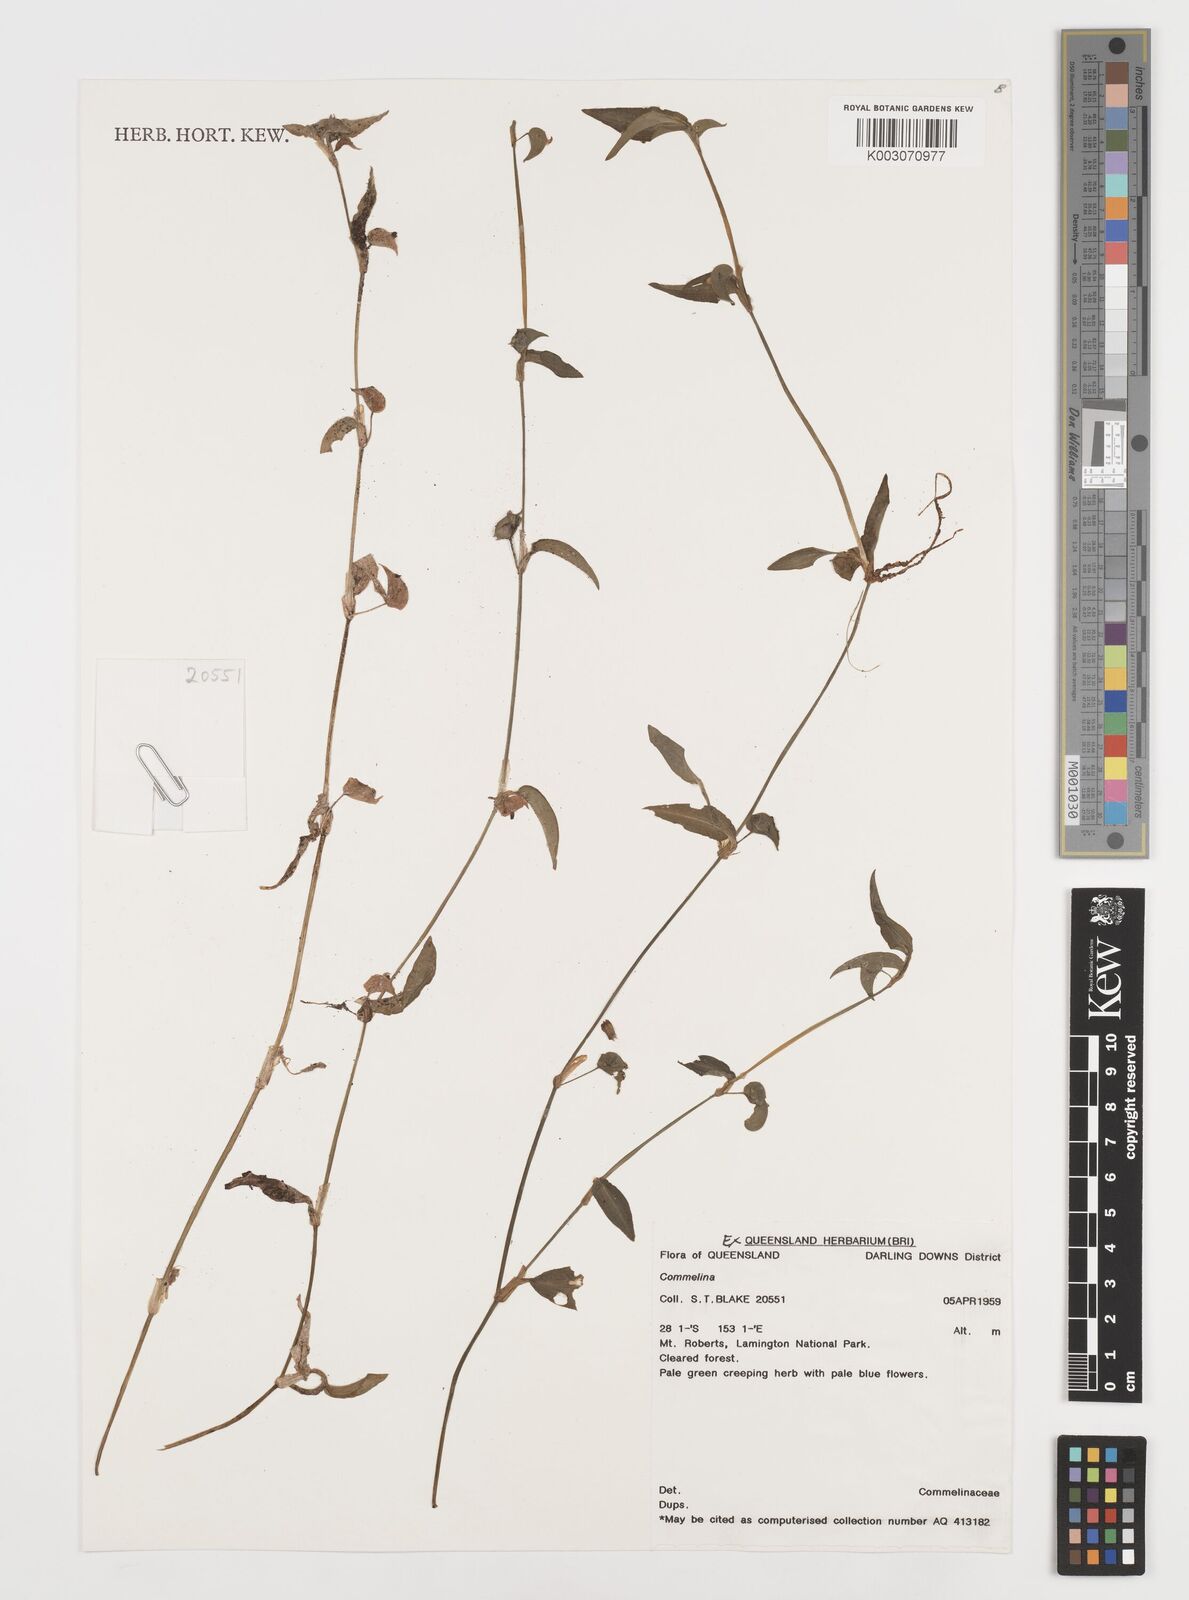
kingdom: Plantae
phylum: Tracheophyta
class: Liliopsida
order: Commelinales
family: Commelinaceae
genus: Commelina
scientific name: Commelina
